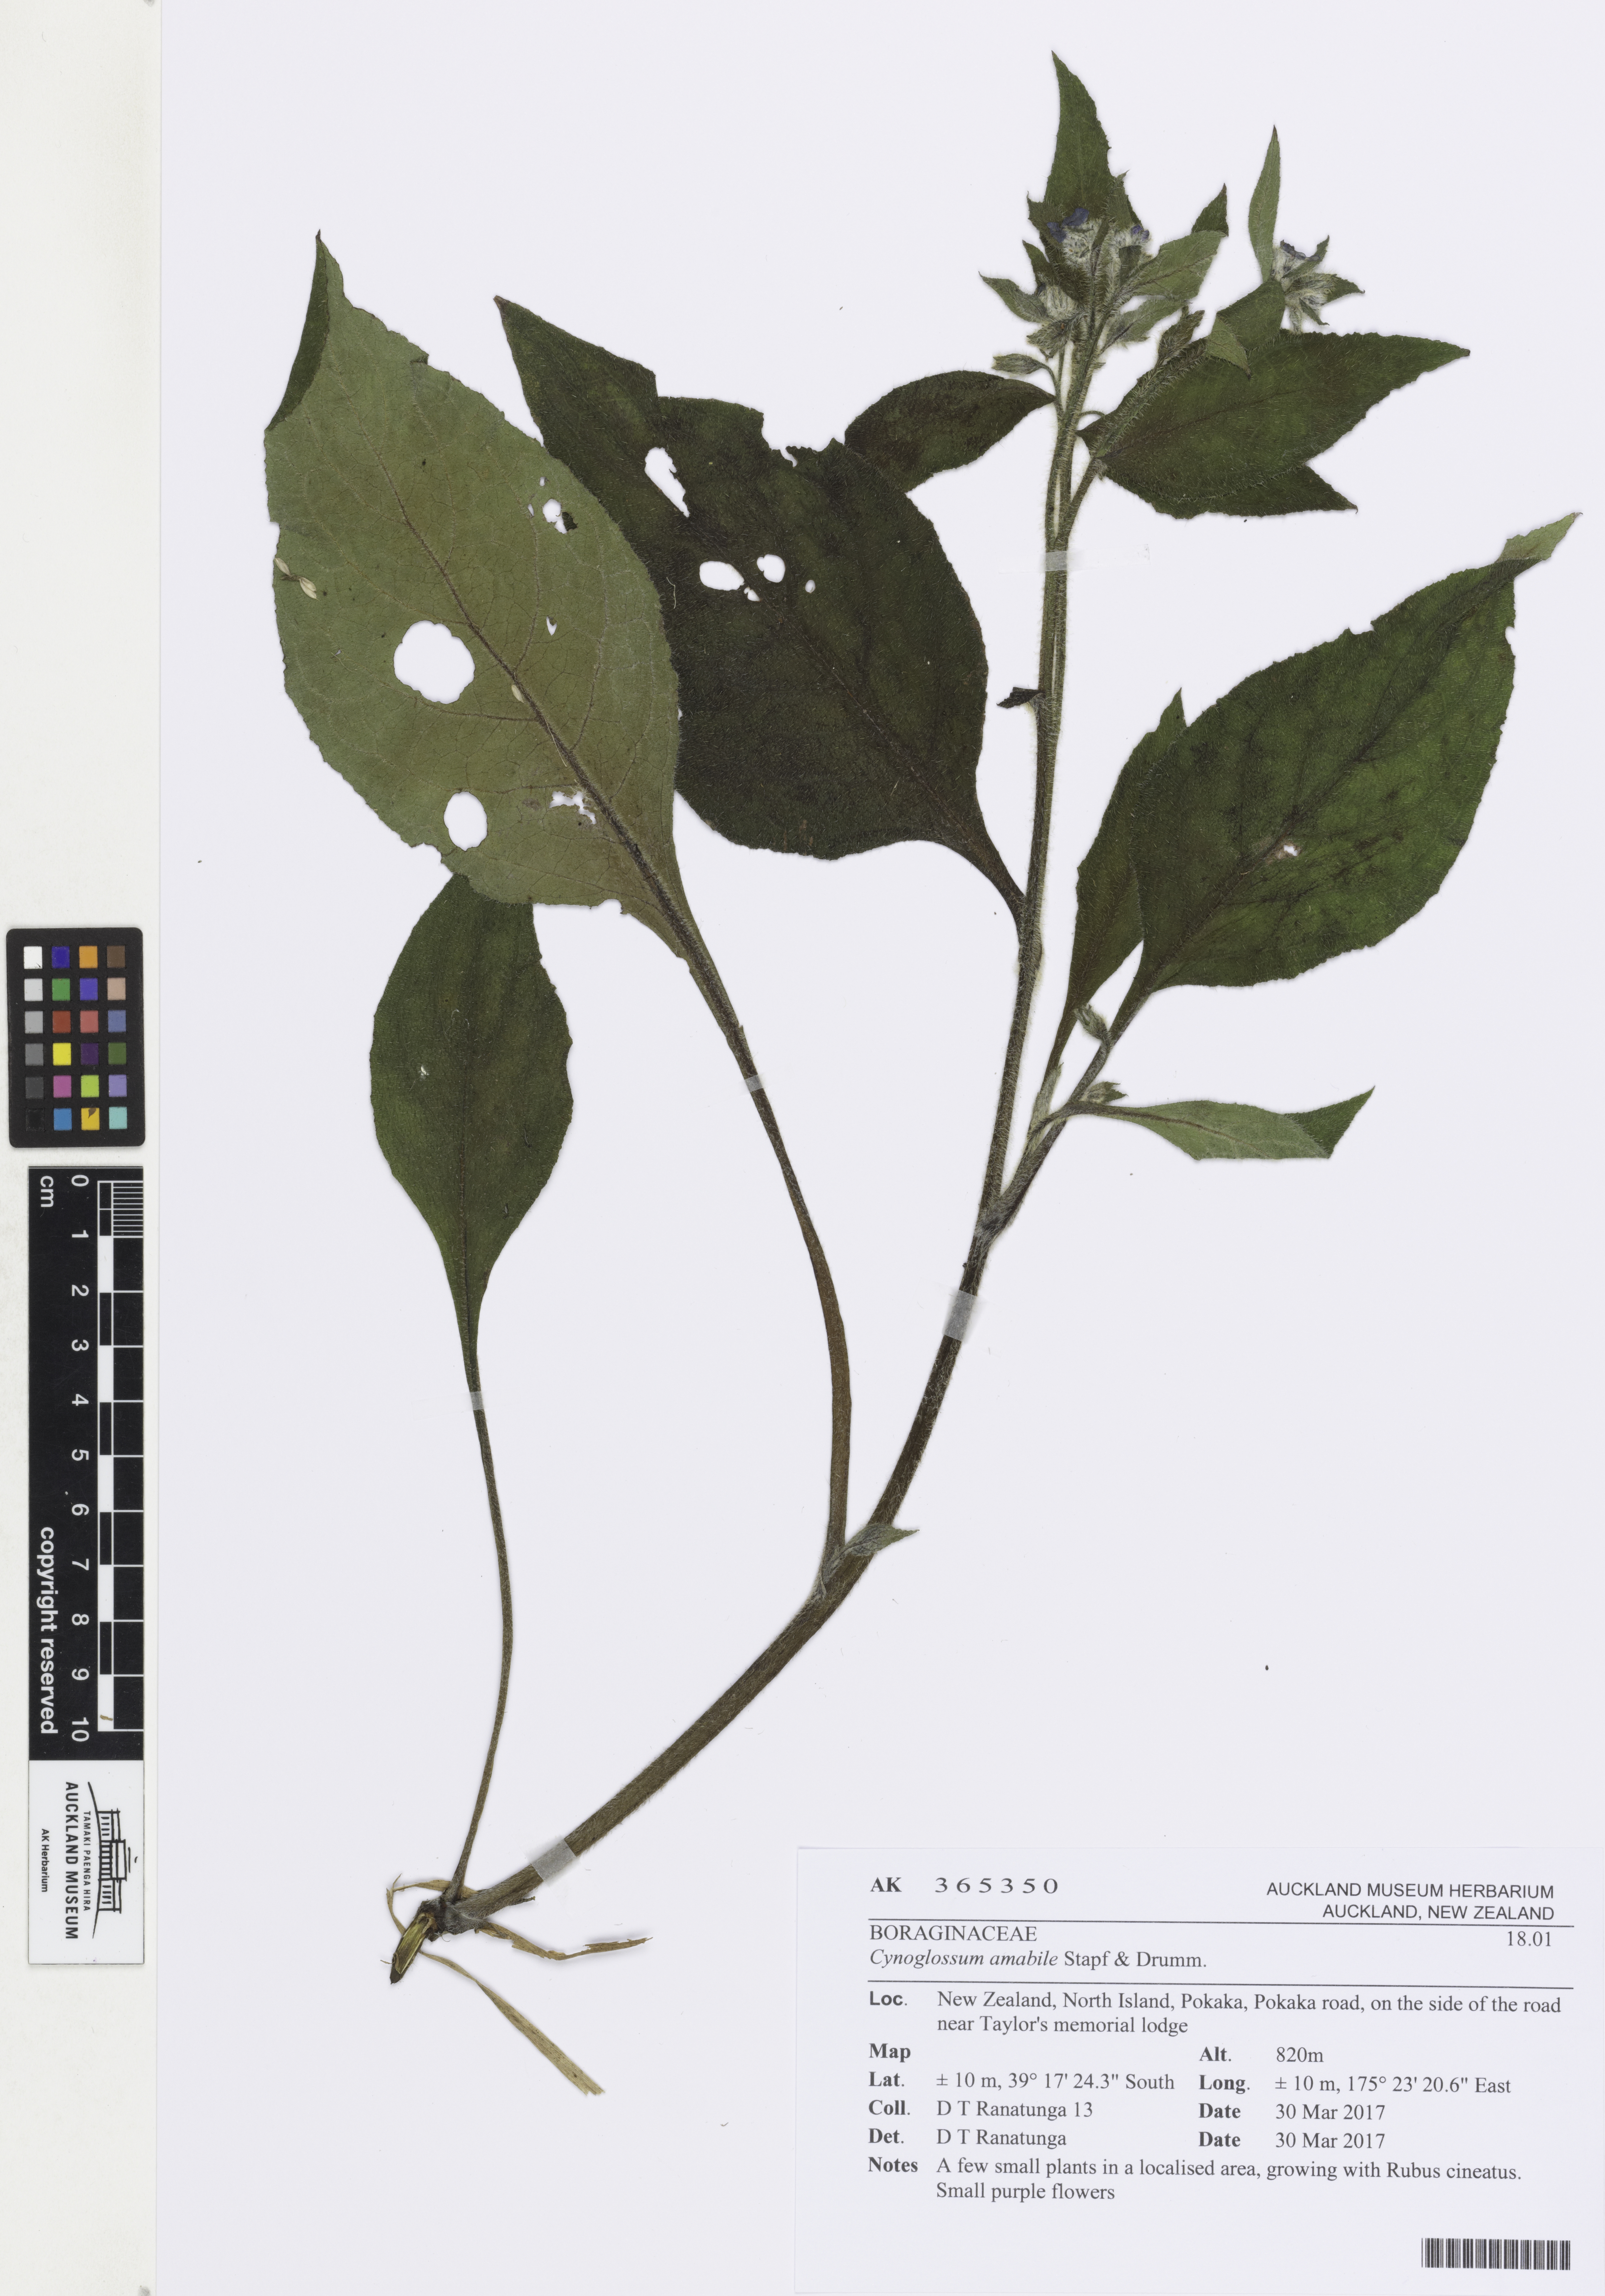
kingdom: Plantae
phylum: Tracheophyta
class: Magnoliopsida
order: Boraginales
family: Boraginaceae
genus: Cynoglossum
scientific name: Cynoglossum amabile
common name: Chinese hound's tongue
